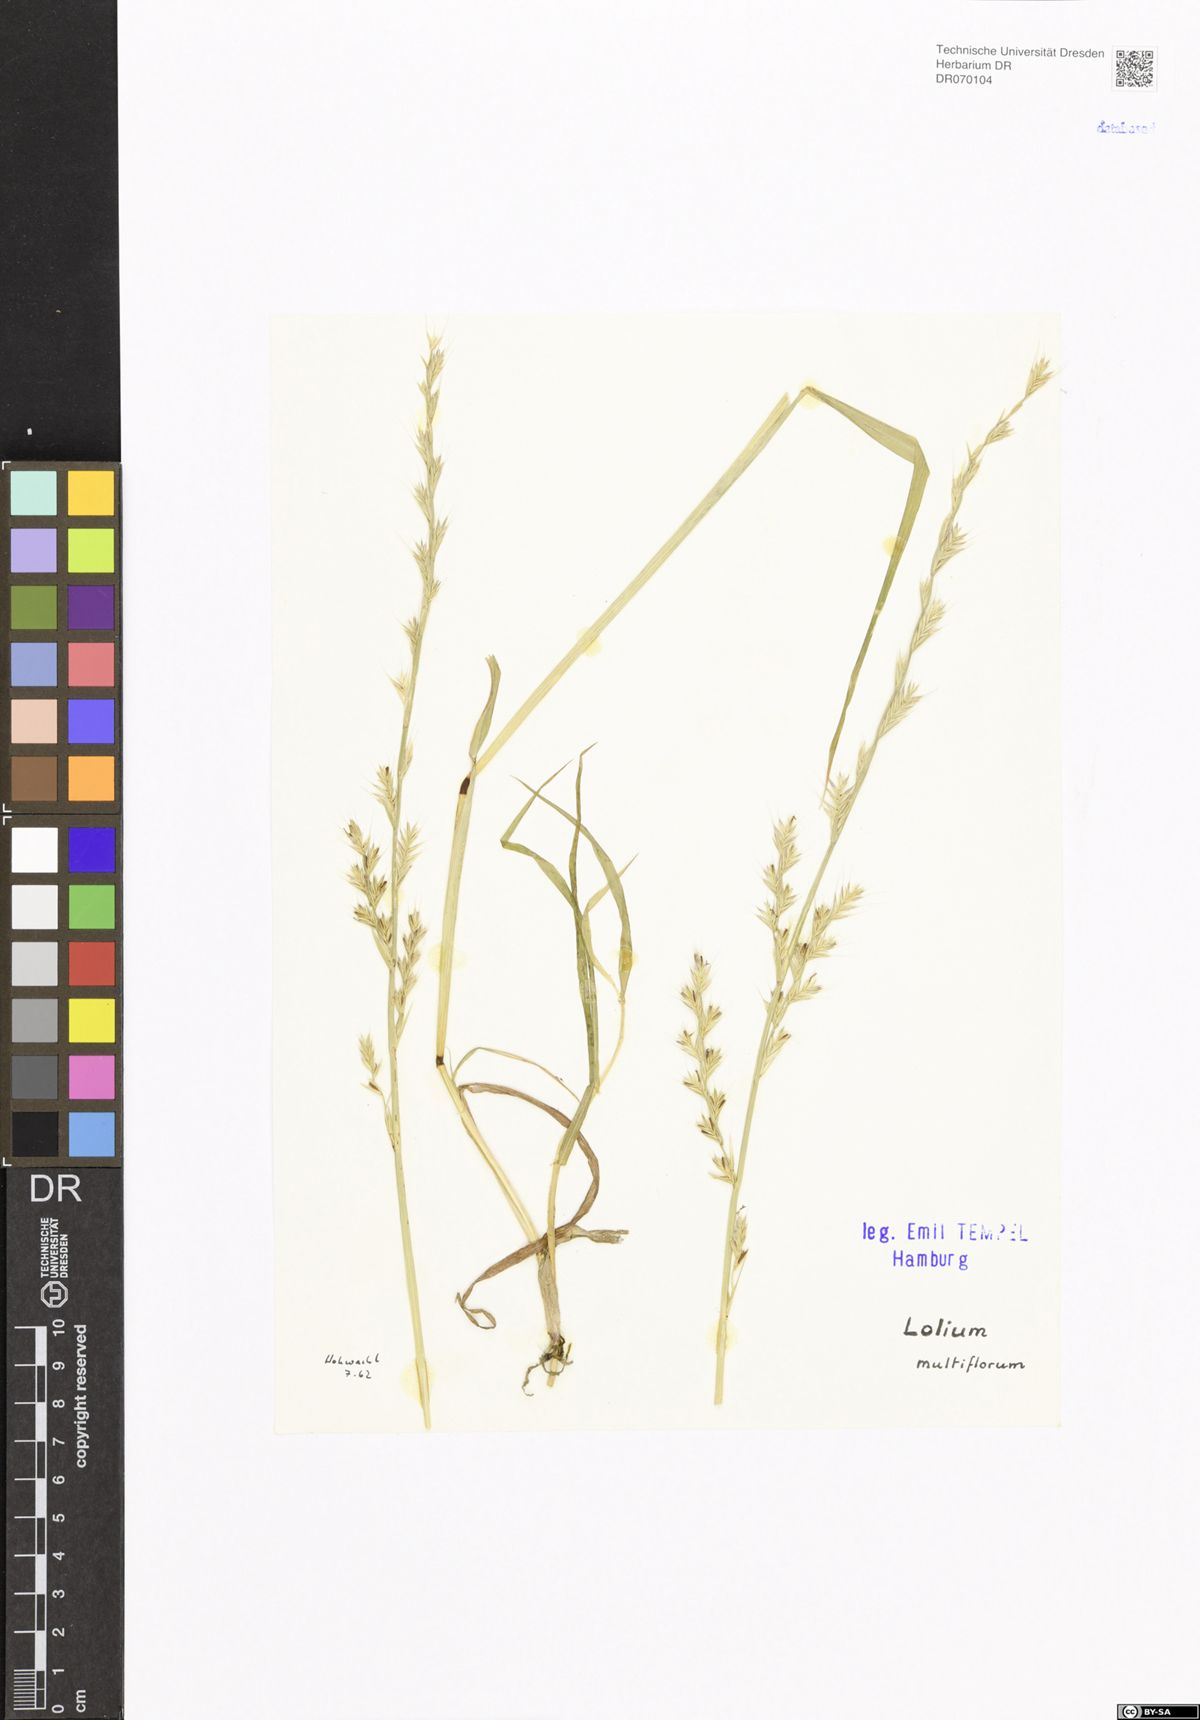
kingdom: Plantae
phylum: Tracheophyta
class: Liliopsida
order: Poales
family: Poaceae
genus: Lolium
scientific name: Lolium multiflorum
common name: Annual ryegrass
